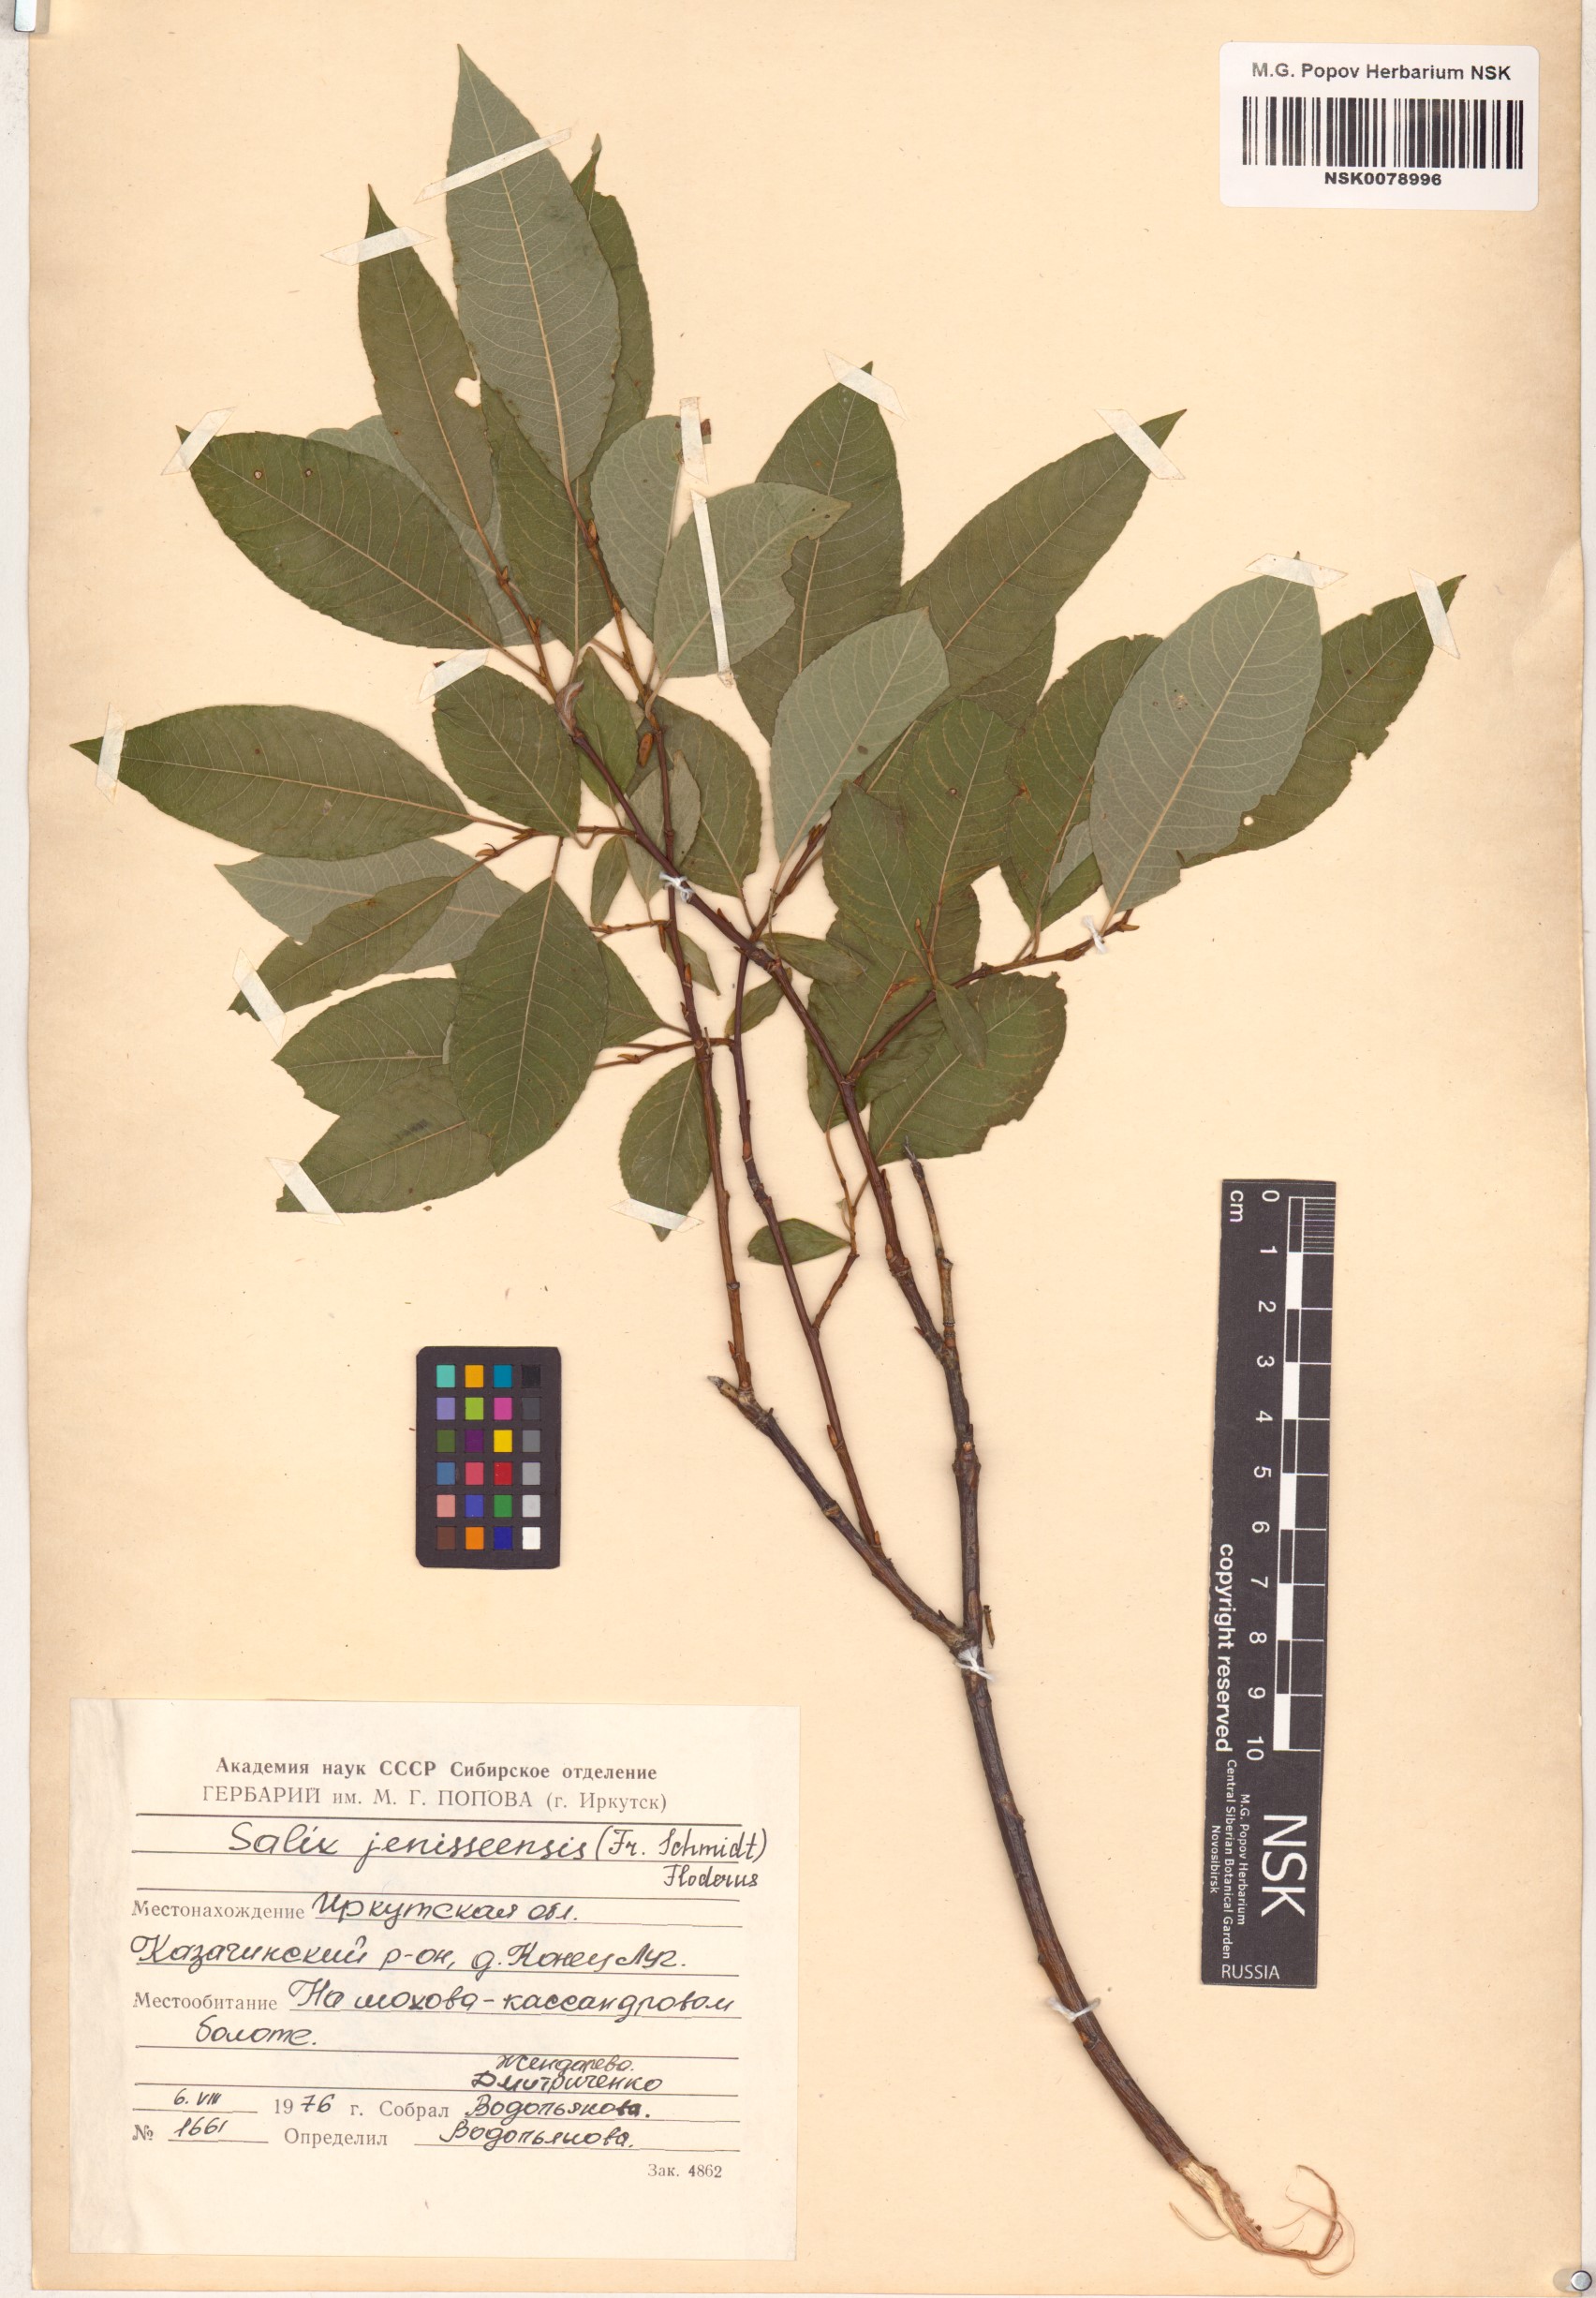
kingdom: Plantae
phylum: Tracheophyta
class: Magnoliopsida
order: Malpighiales
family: Salicaceae
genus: Salix
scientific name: Salix jenisseensis
